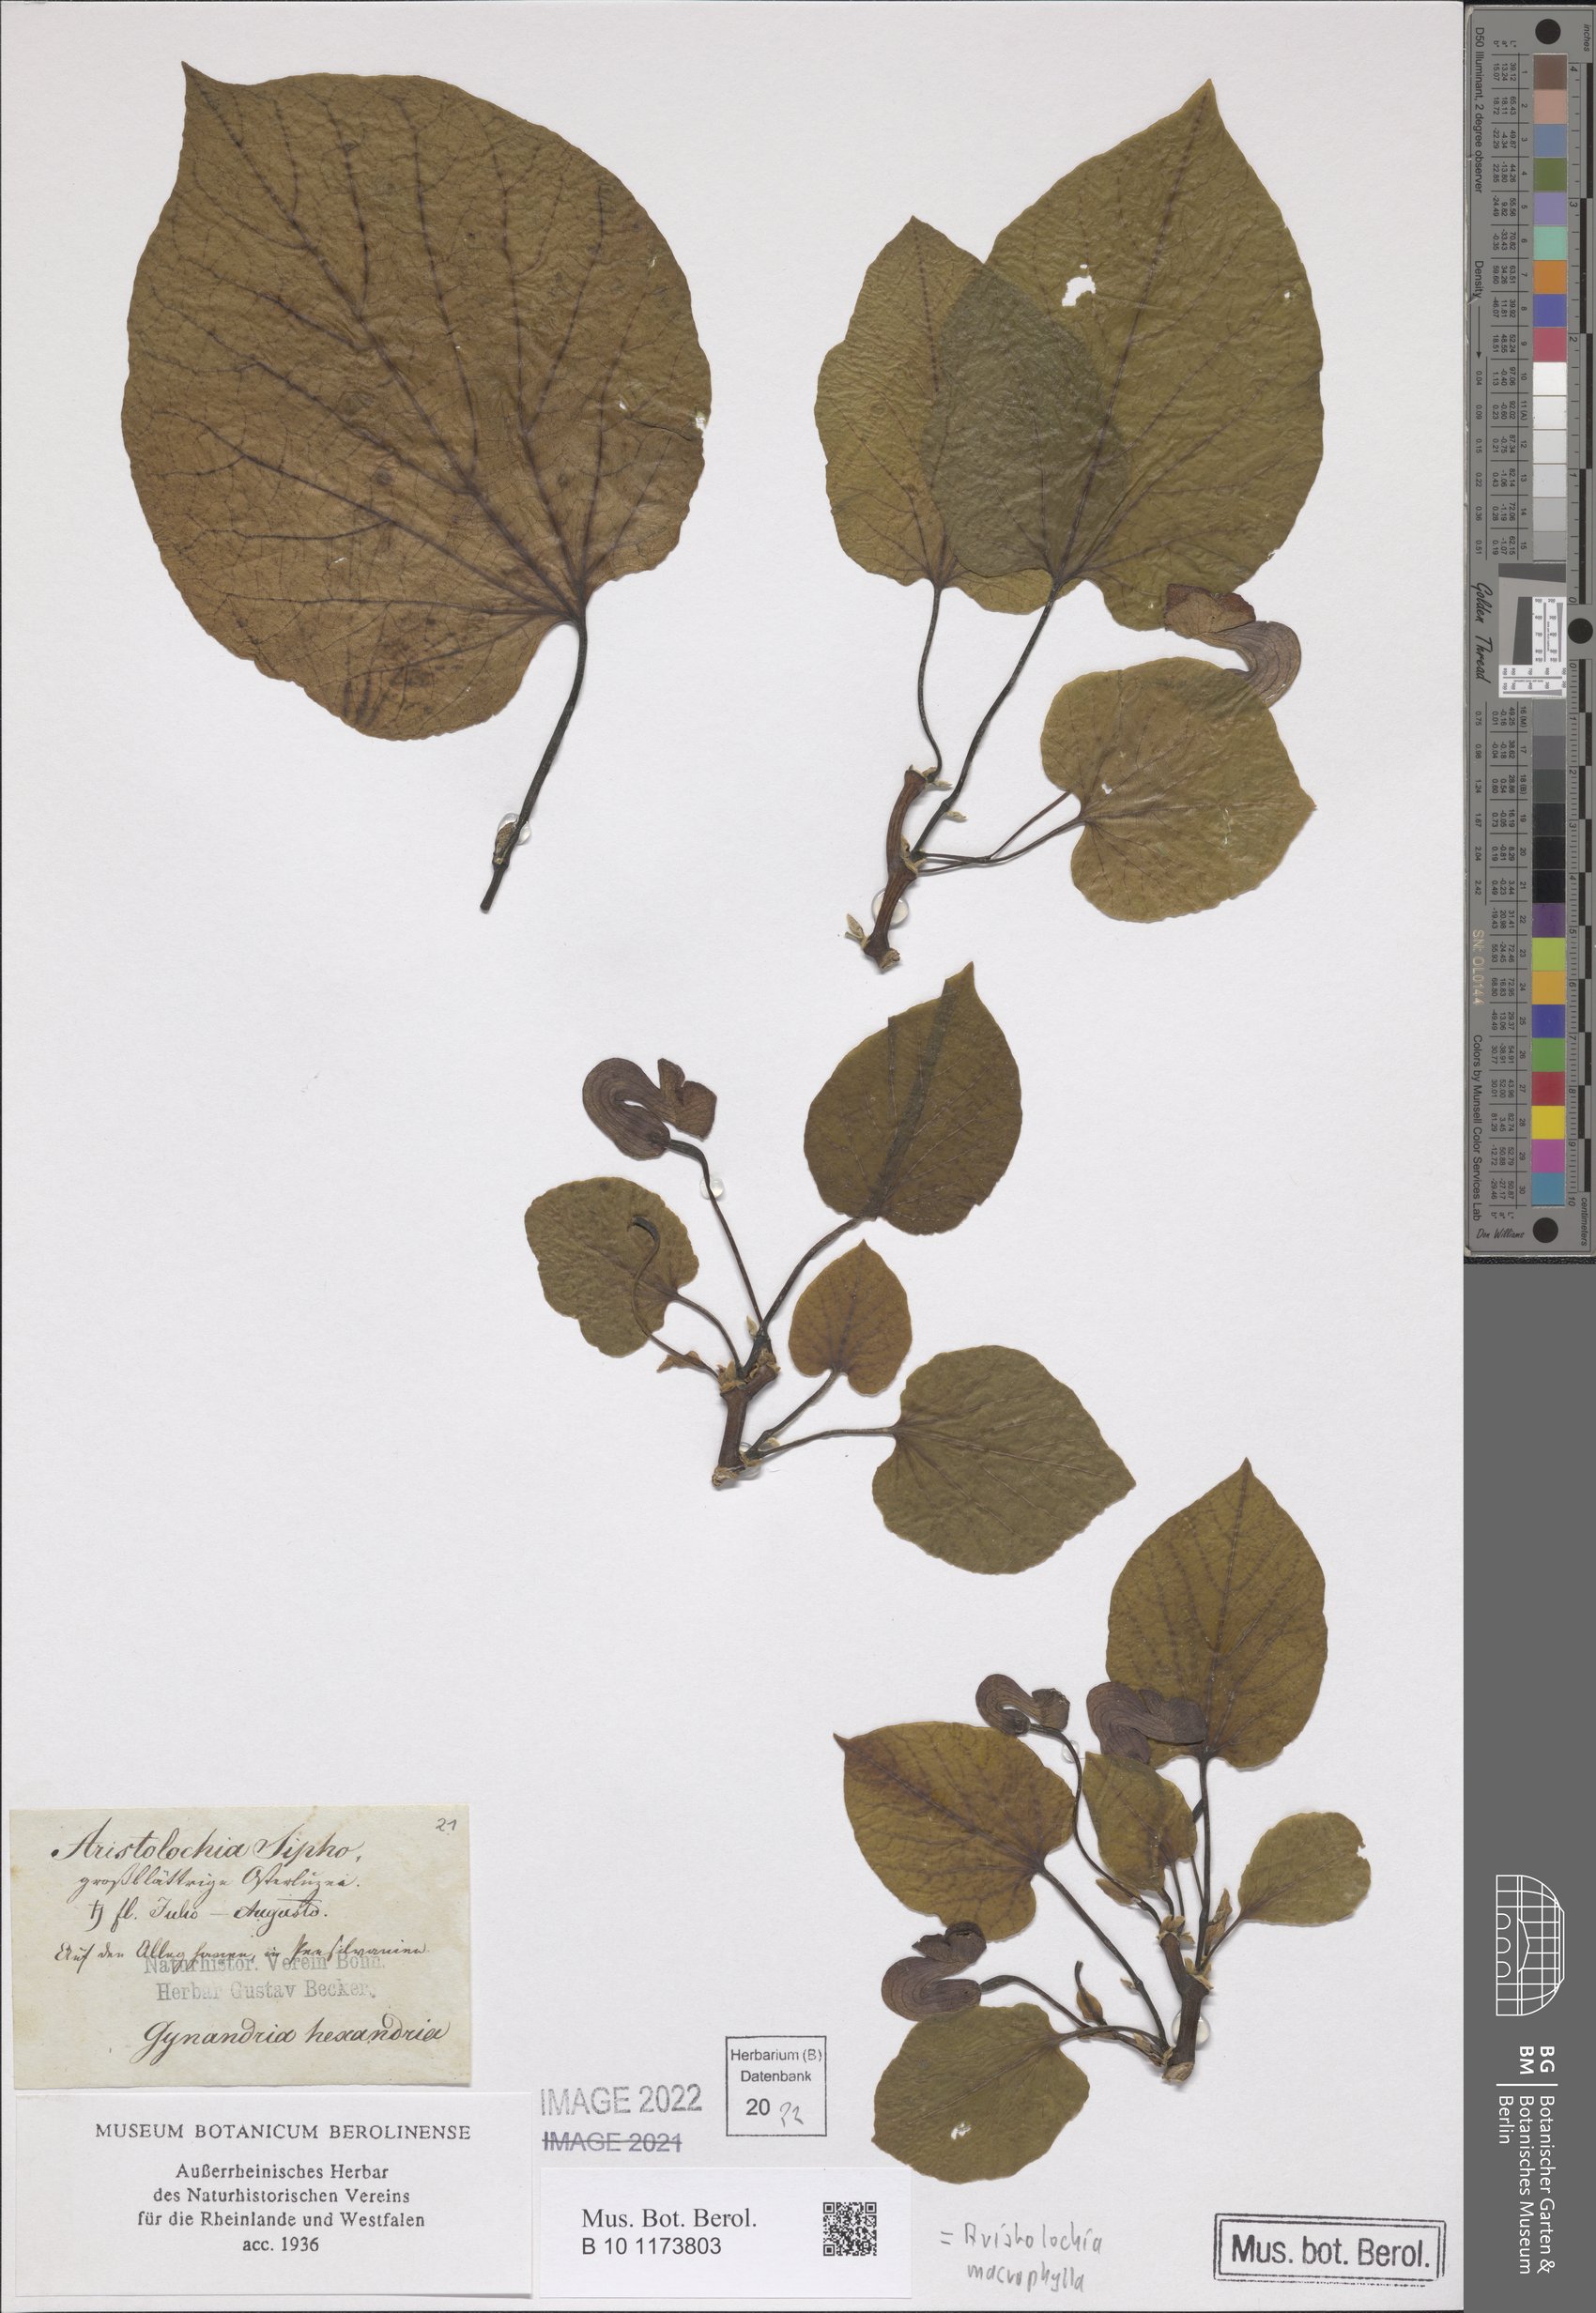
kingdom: Plantae
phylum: Tracheophyta
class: Magnoliopsida
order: Piperales
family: Aristolochiaceae
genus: Isotrema
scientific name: Isotrema macrophyllum
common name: Dutchman's-pipe
